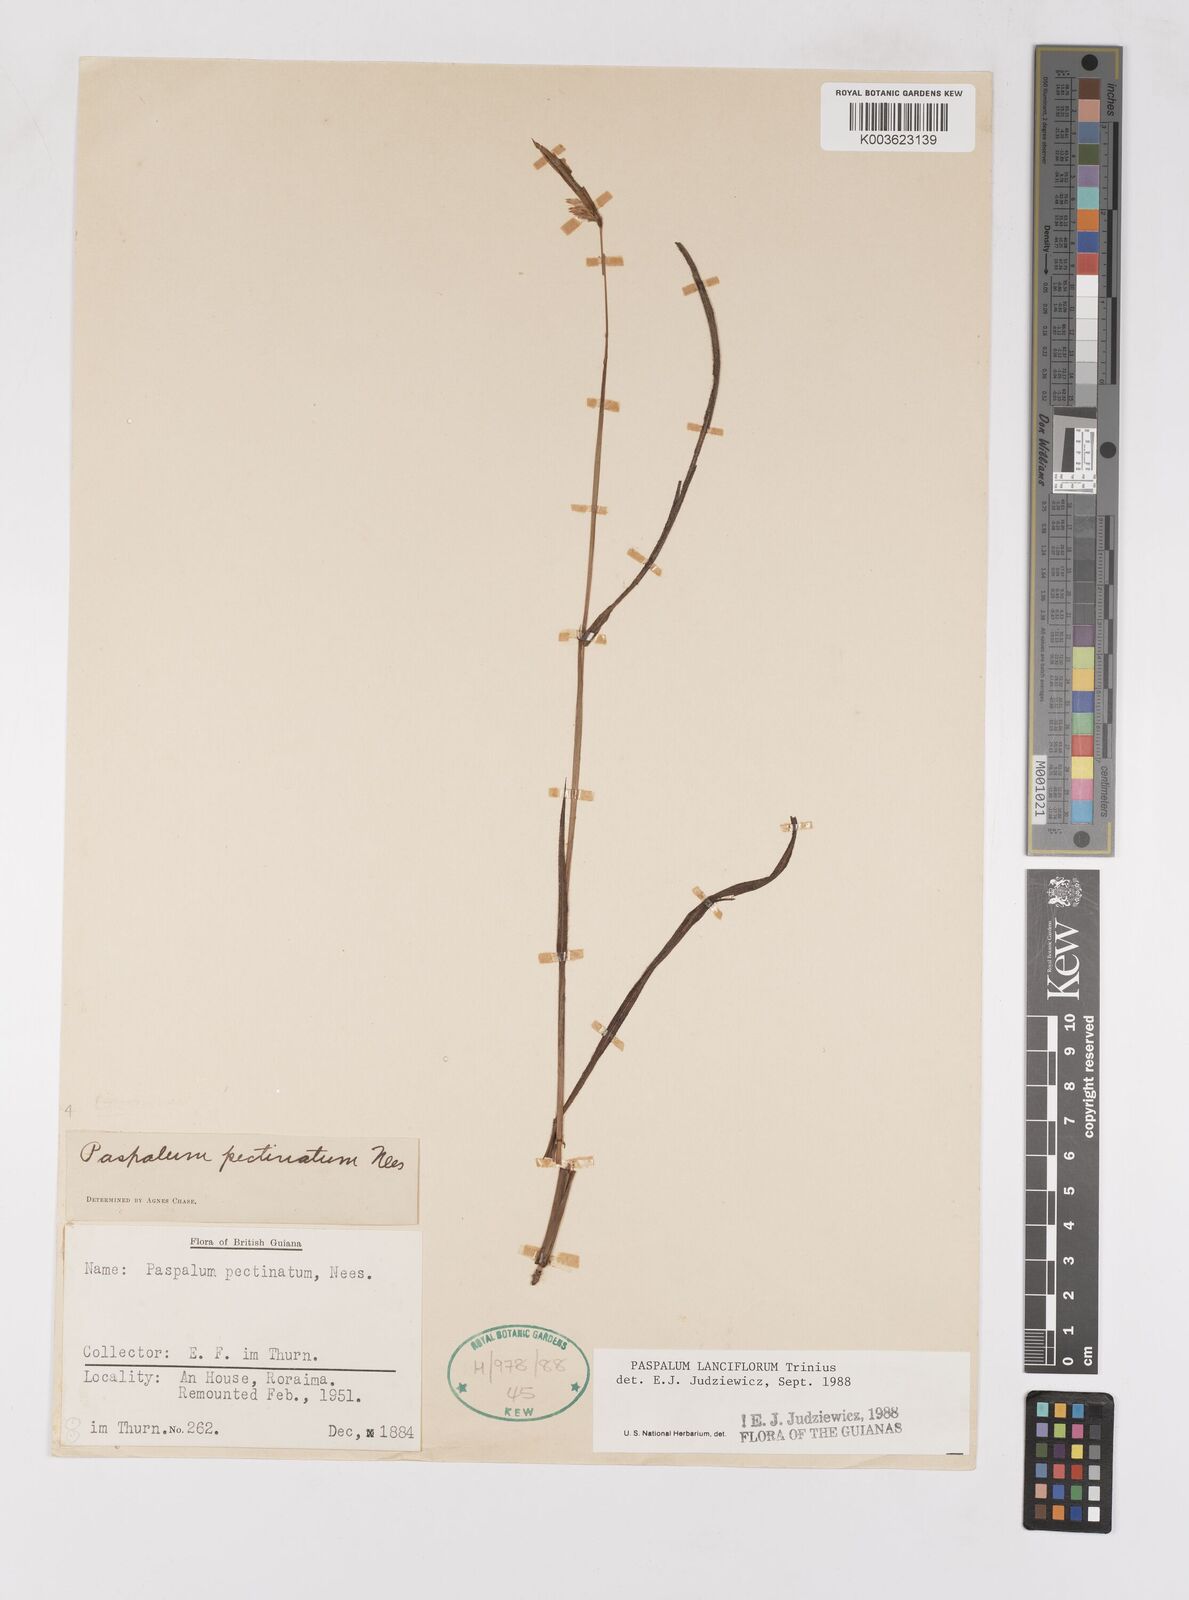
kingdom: Plantae
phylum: Tracheophyta
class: Liliopsida
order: Poales
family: Poaceae
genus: Paspalum
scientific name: Paspalum lanciflorum
